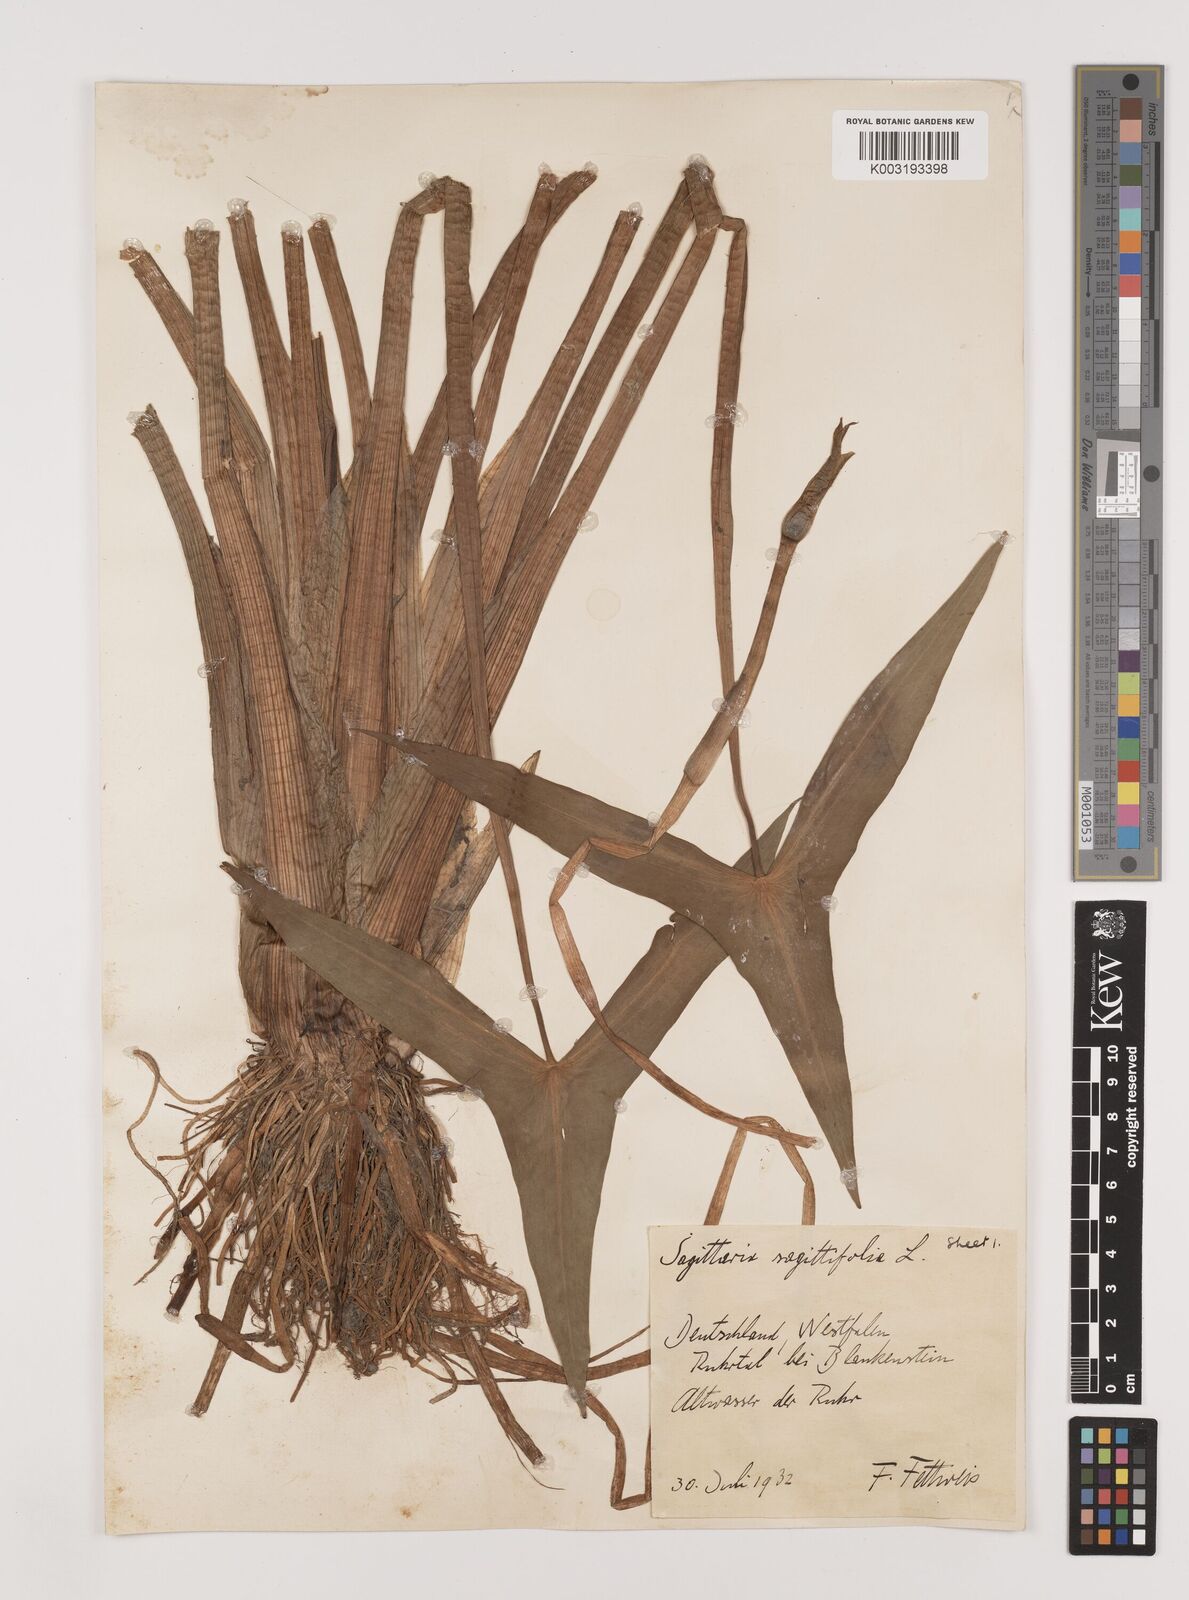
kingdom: Plantae
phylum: Tracheophyta
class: Liliopsida
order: Alismatales
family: Alismataceae
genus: Sagittaria
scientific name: Sagittaria sagittifolia
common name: Arrowhead
